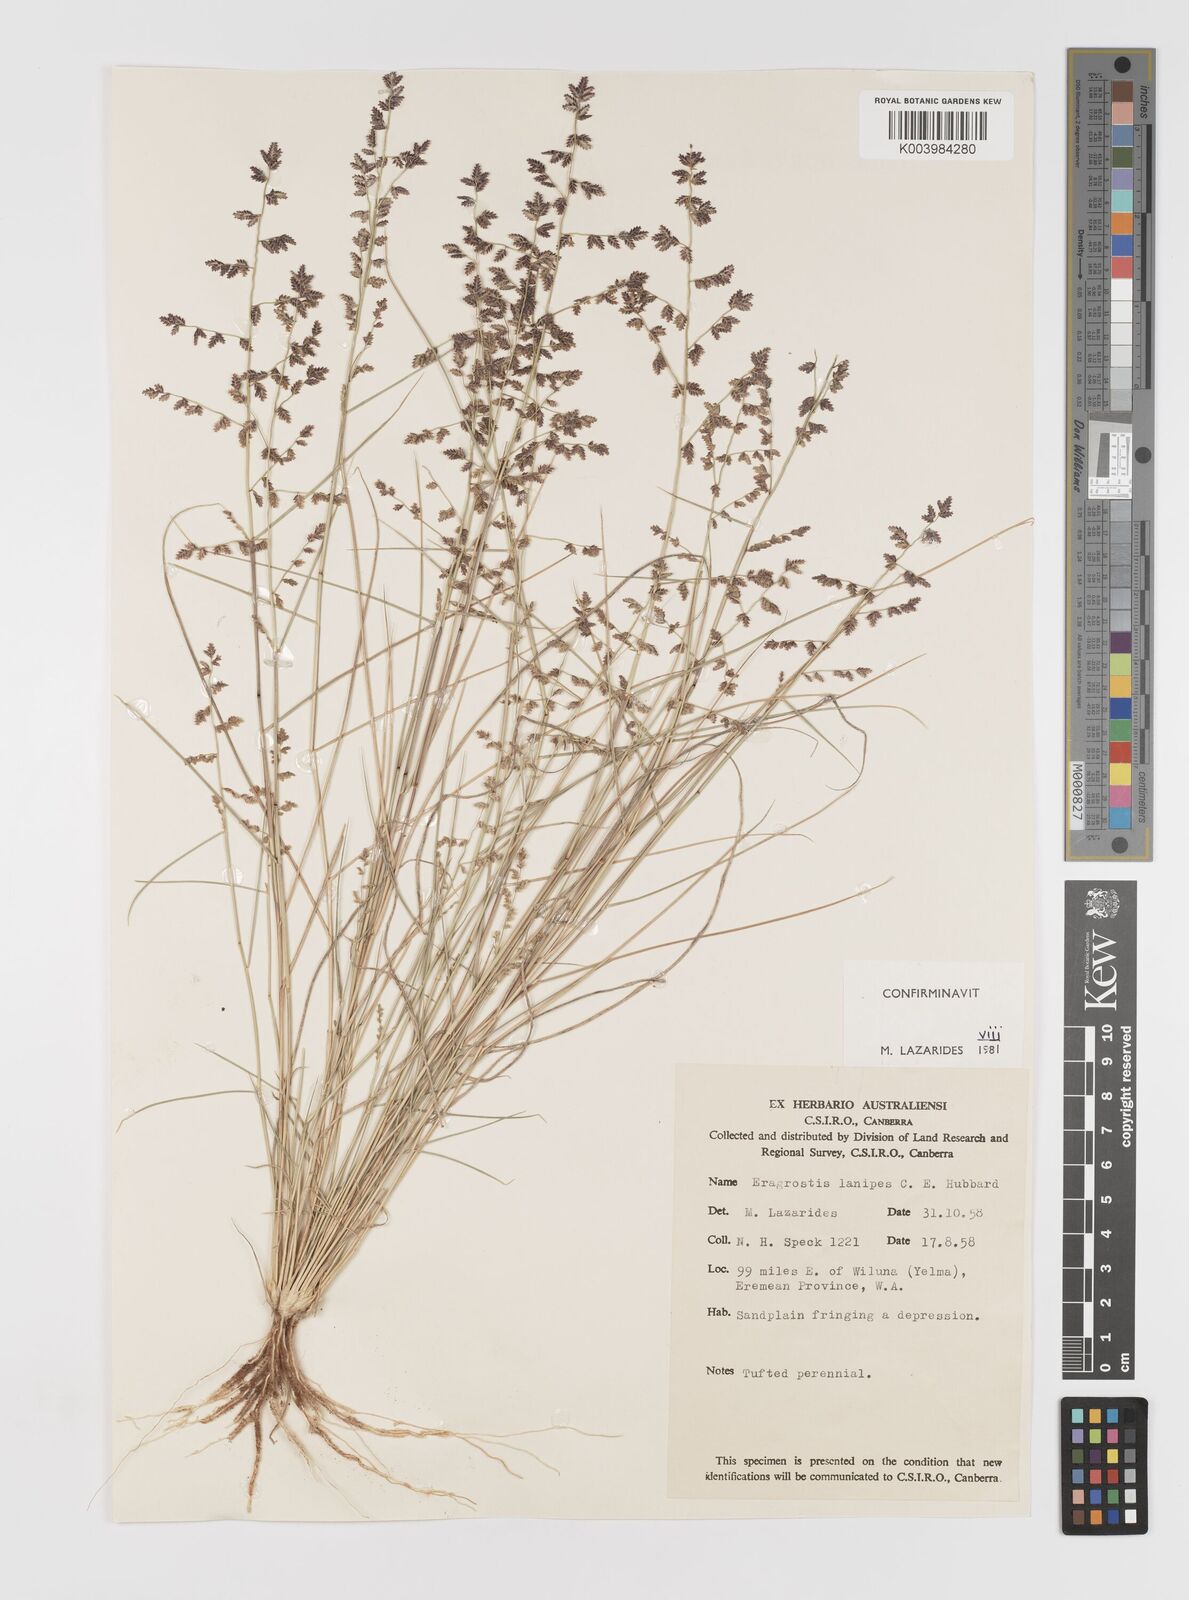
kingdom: Plantae
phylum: Tracheophyta
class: Liliopsida
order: Poales
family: Poaceae
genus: Eragrostis
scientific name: Eragrostis lanipes
